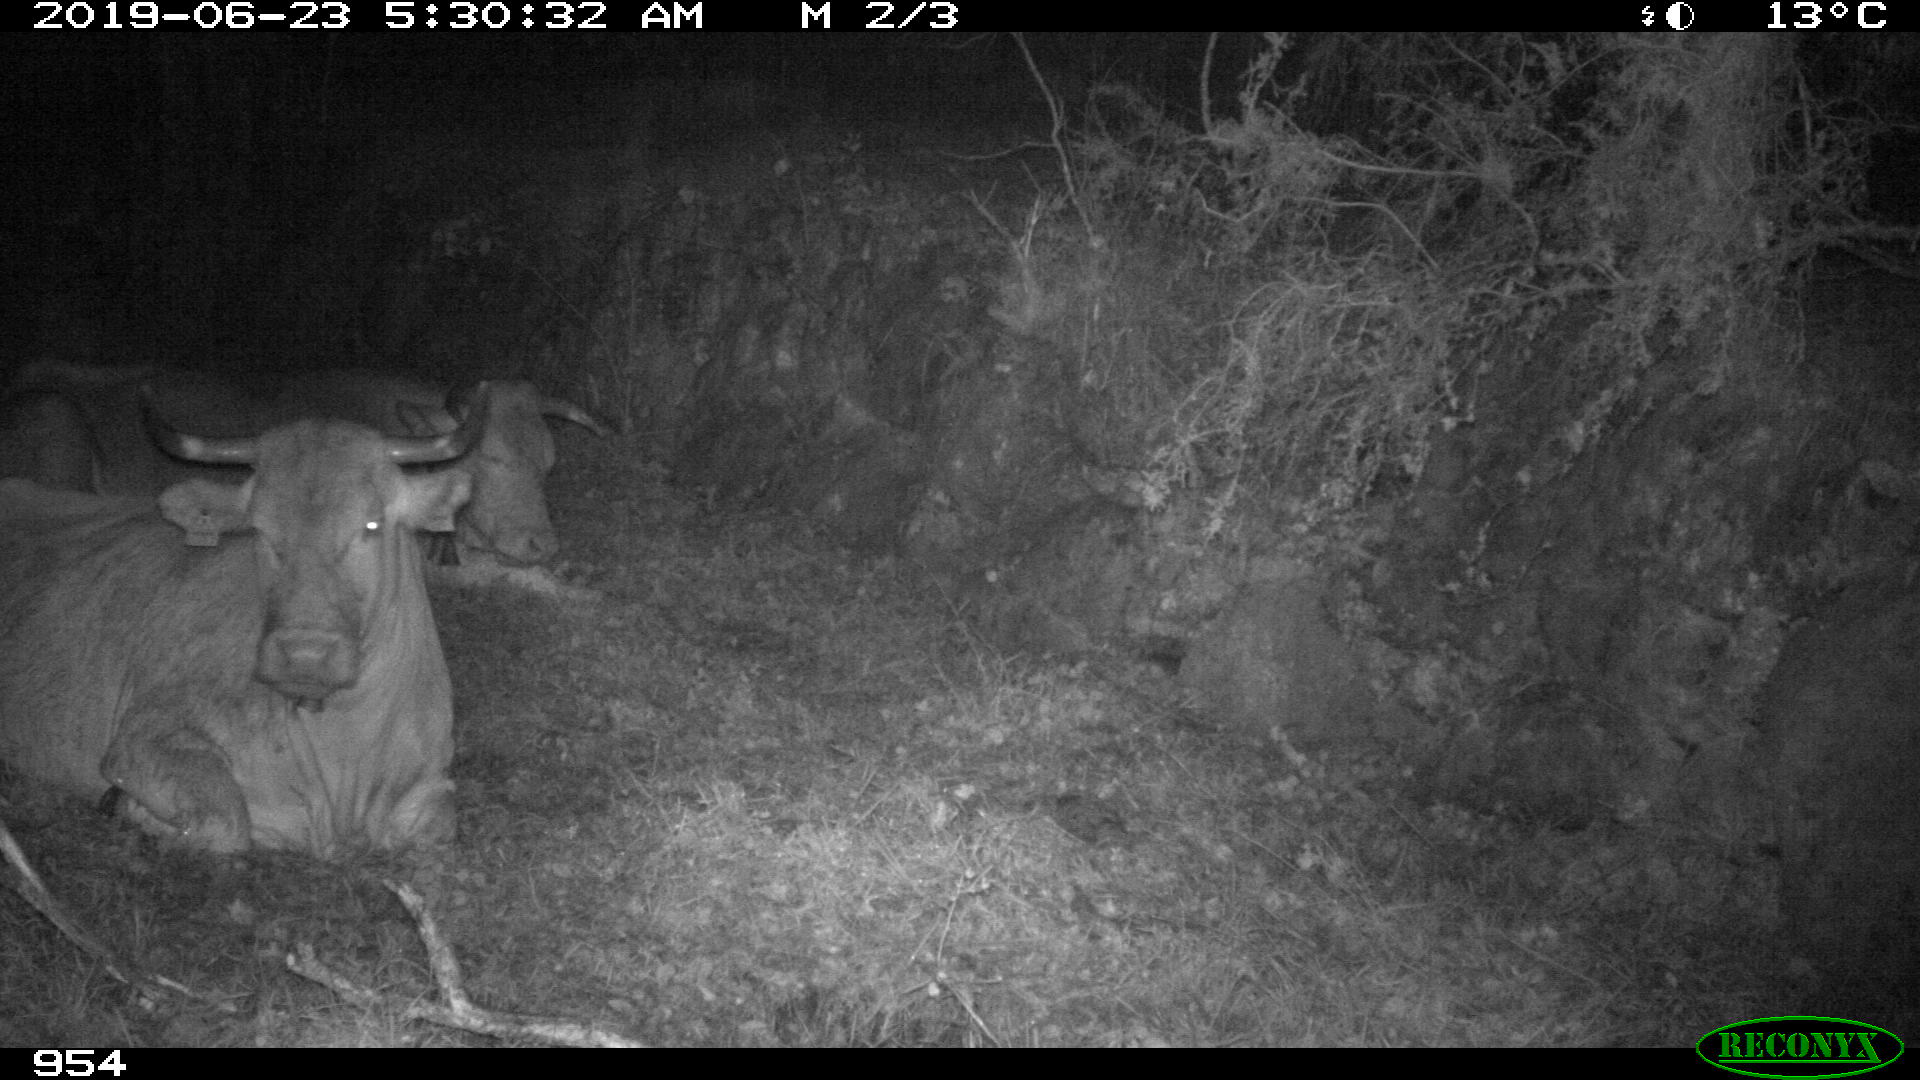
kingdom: Animalia
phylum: Chordata
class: Mammalia
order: Artiodactyla
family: Bovidae
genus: Bos
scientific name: Bos taurus
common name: Domesticated cattle
